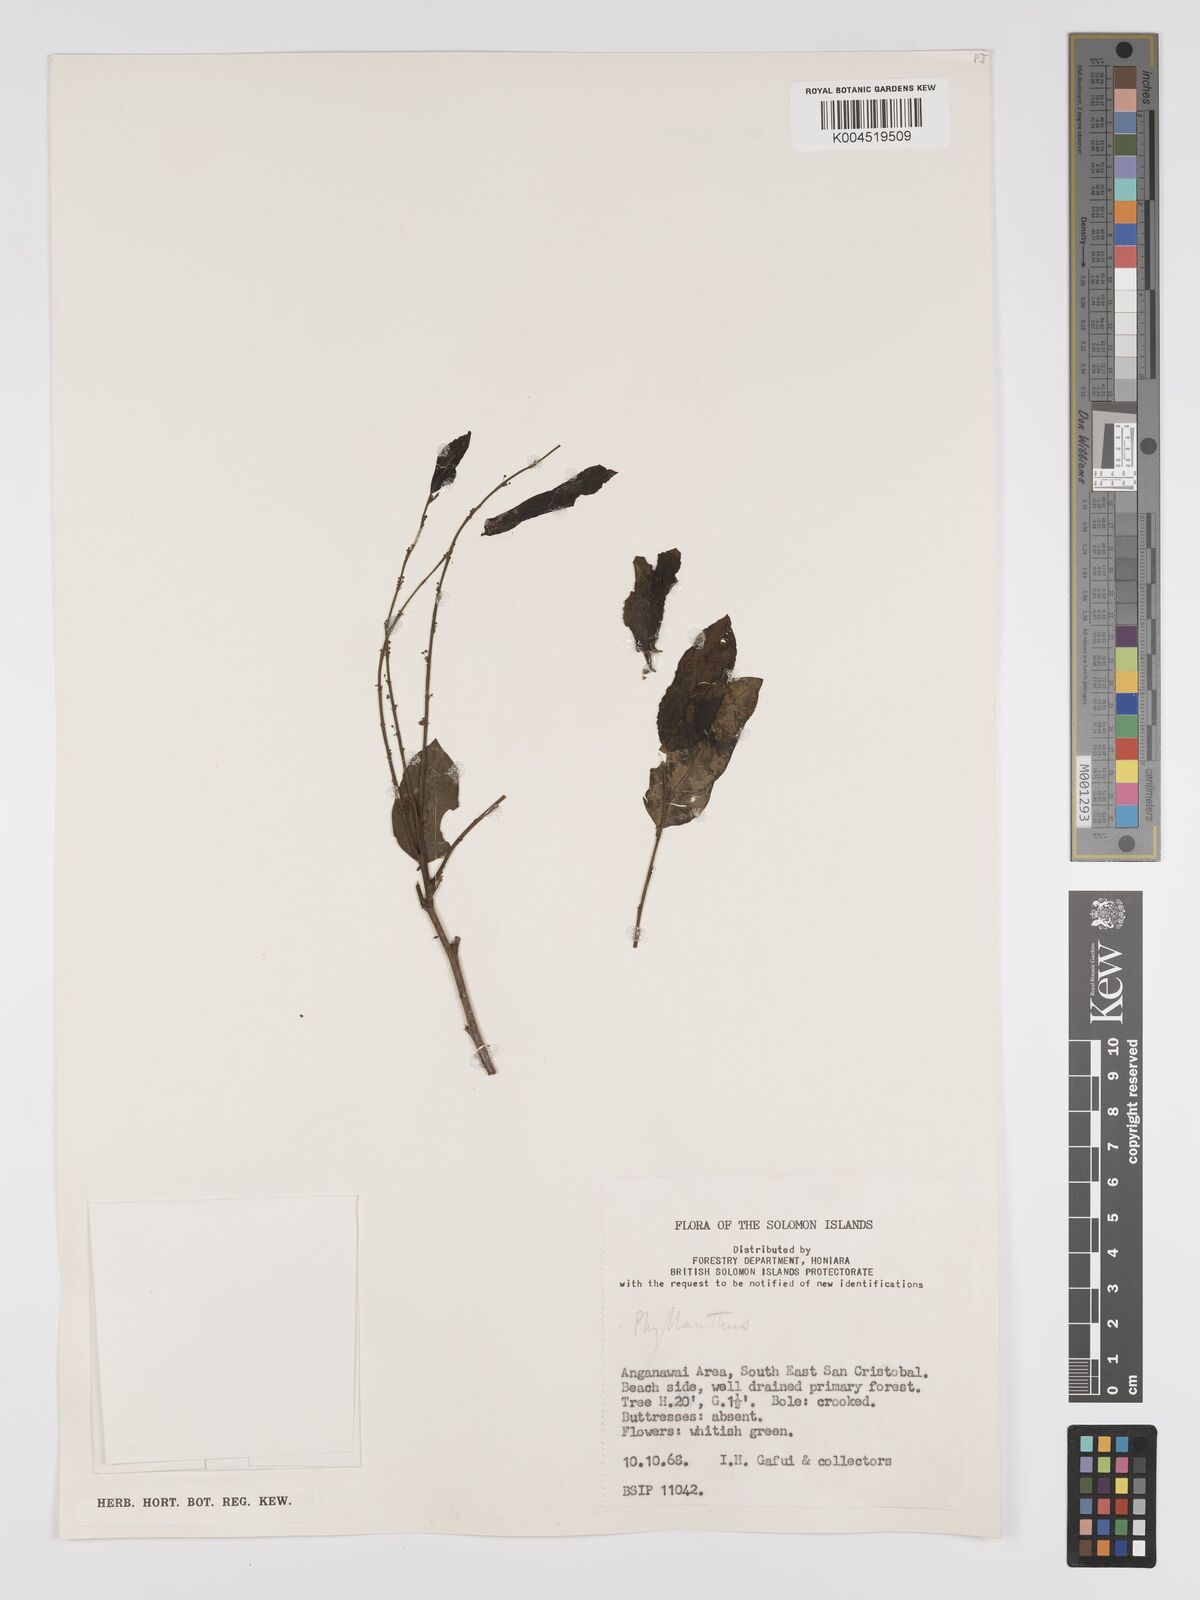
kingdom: Plantae
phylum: Tracheophyta
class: Magnoliopsida
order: Malpighiales
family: Phyllanthaceae
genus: Phyllanthus
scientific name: Phyllanthus
